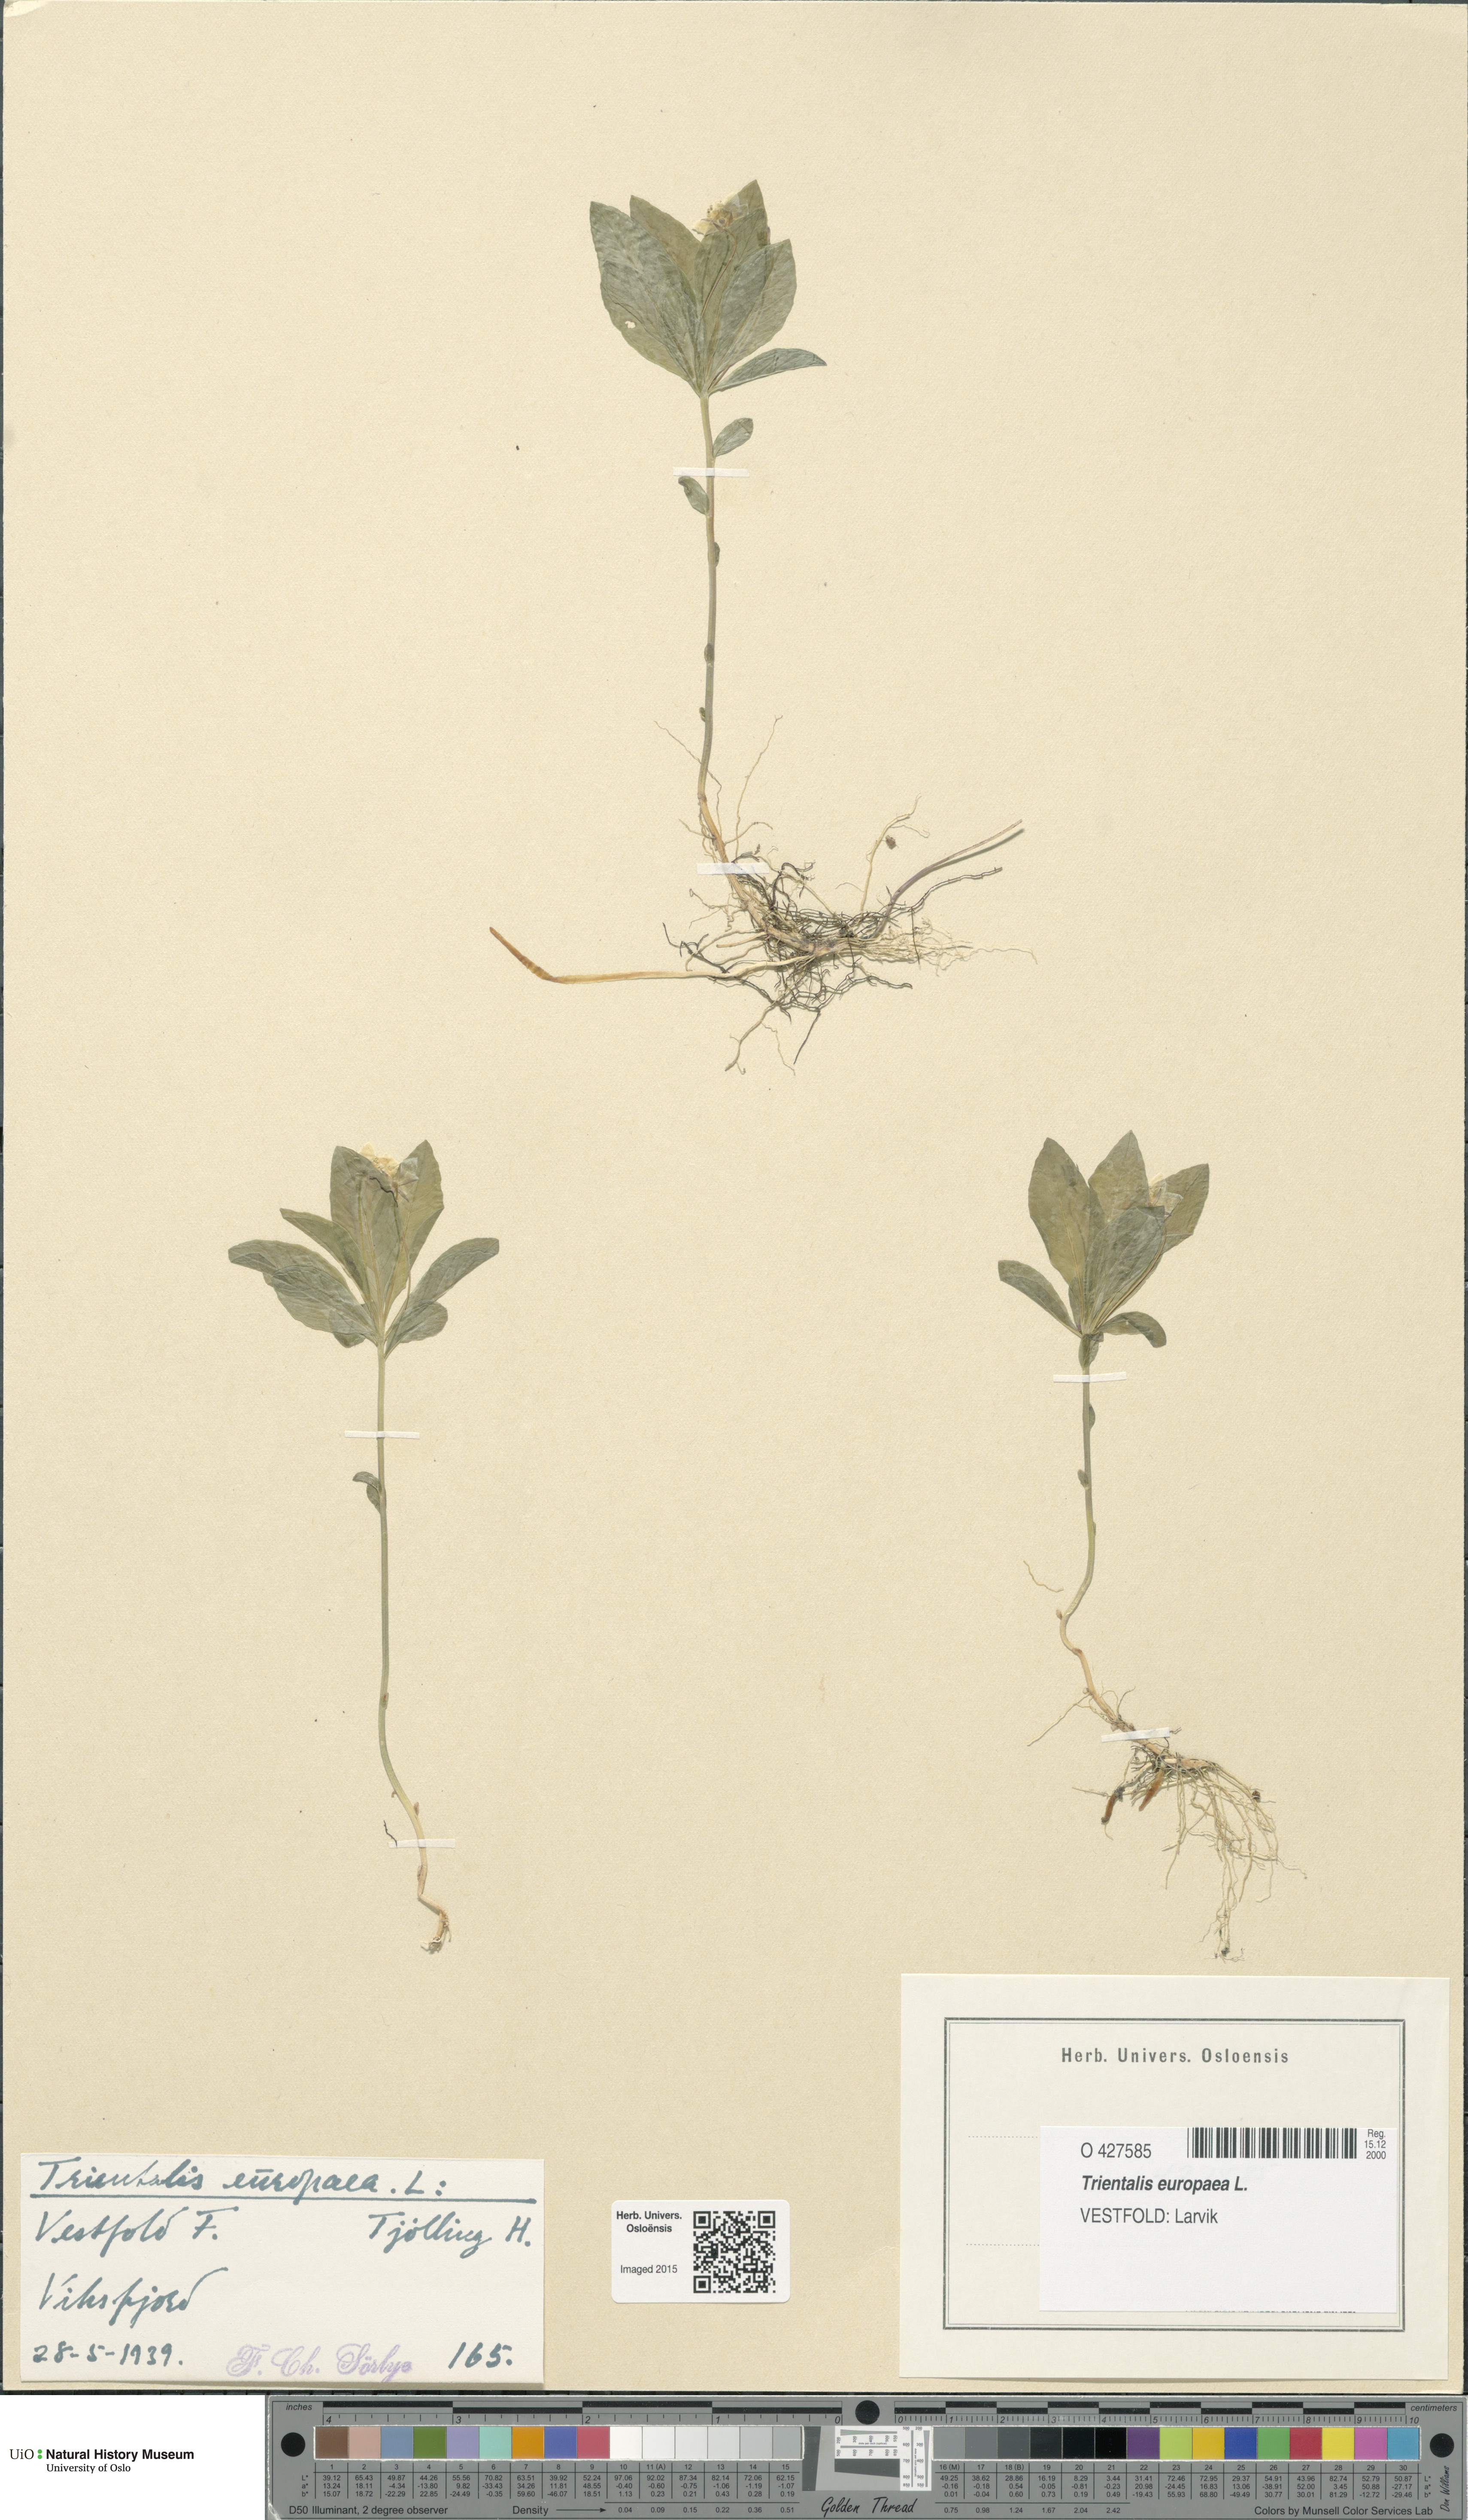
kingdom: Plantae
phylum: Tracheophyta
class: Magnoliopsida
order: Ericales
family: Primulaceae
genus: Lysimachia
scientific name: Lysimachia europaea
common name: Arctic starflower
